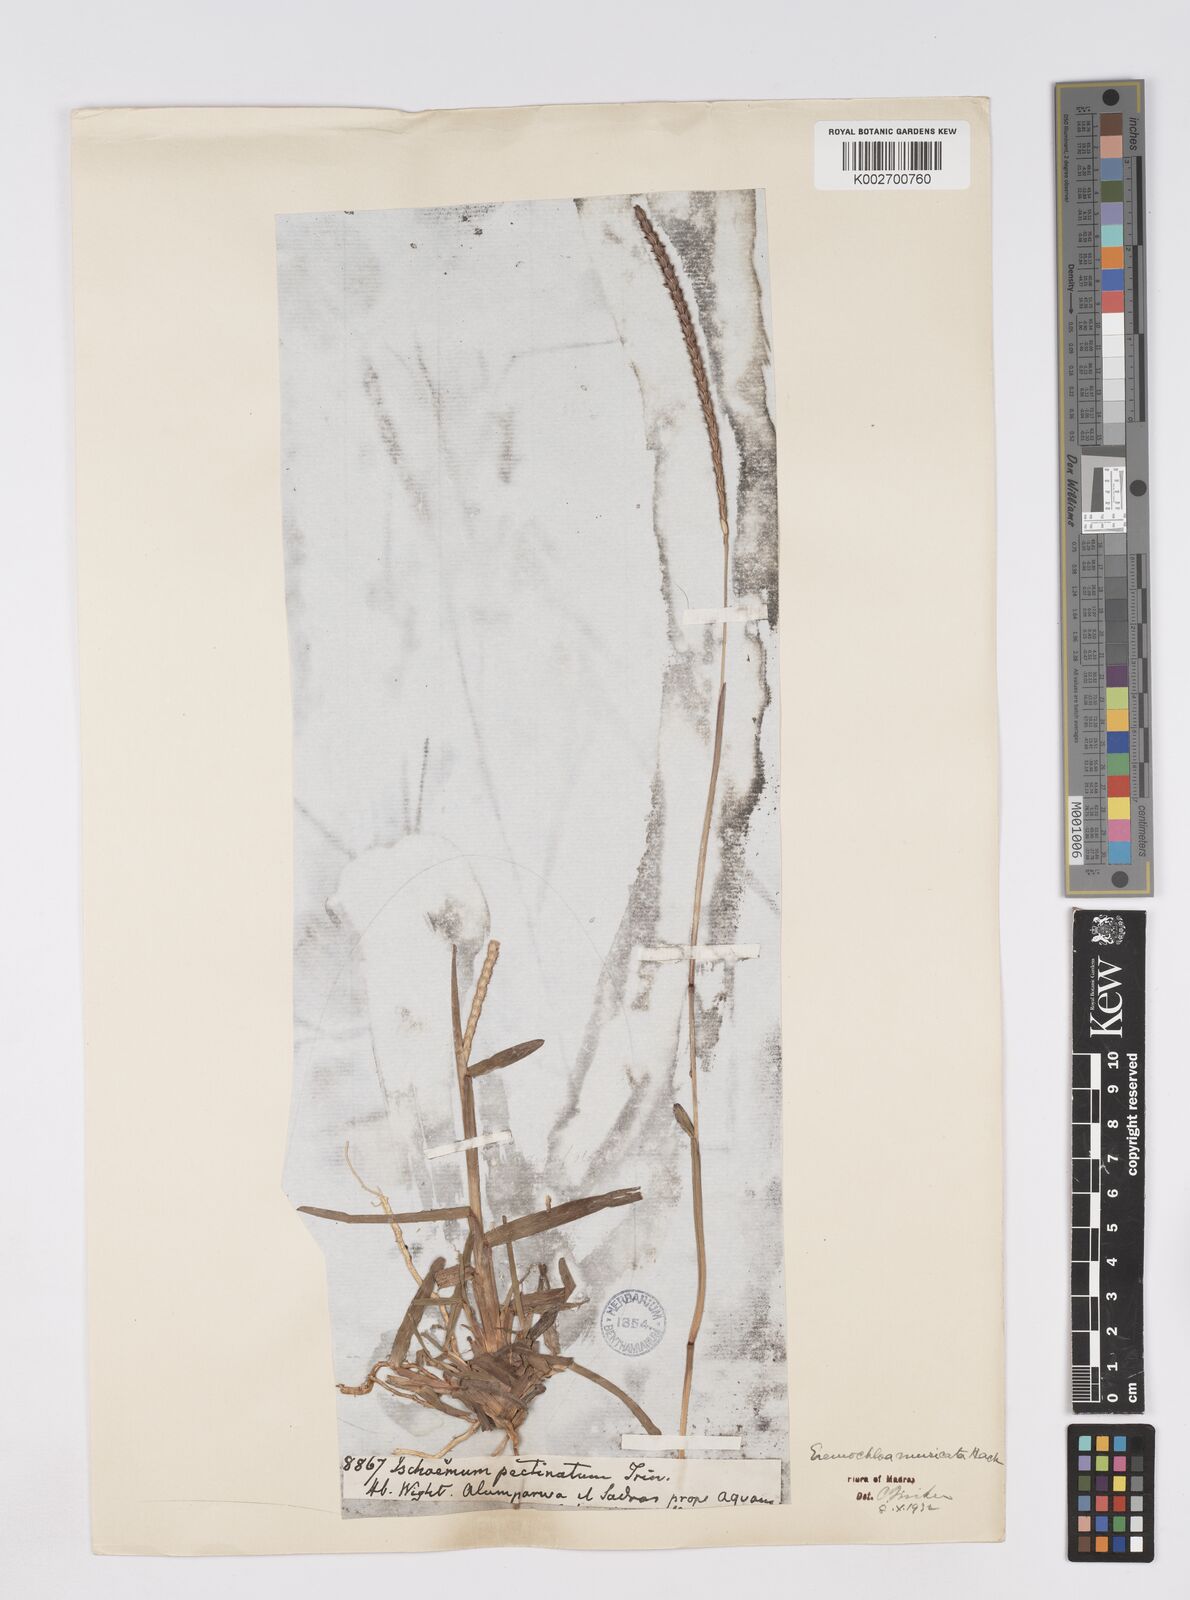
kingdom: Plantae
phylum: Tracheophyta
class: Liliopsida
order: Poales
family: Poaceae
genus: Eremochloa
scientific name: Eremochloa muricata
